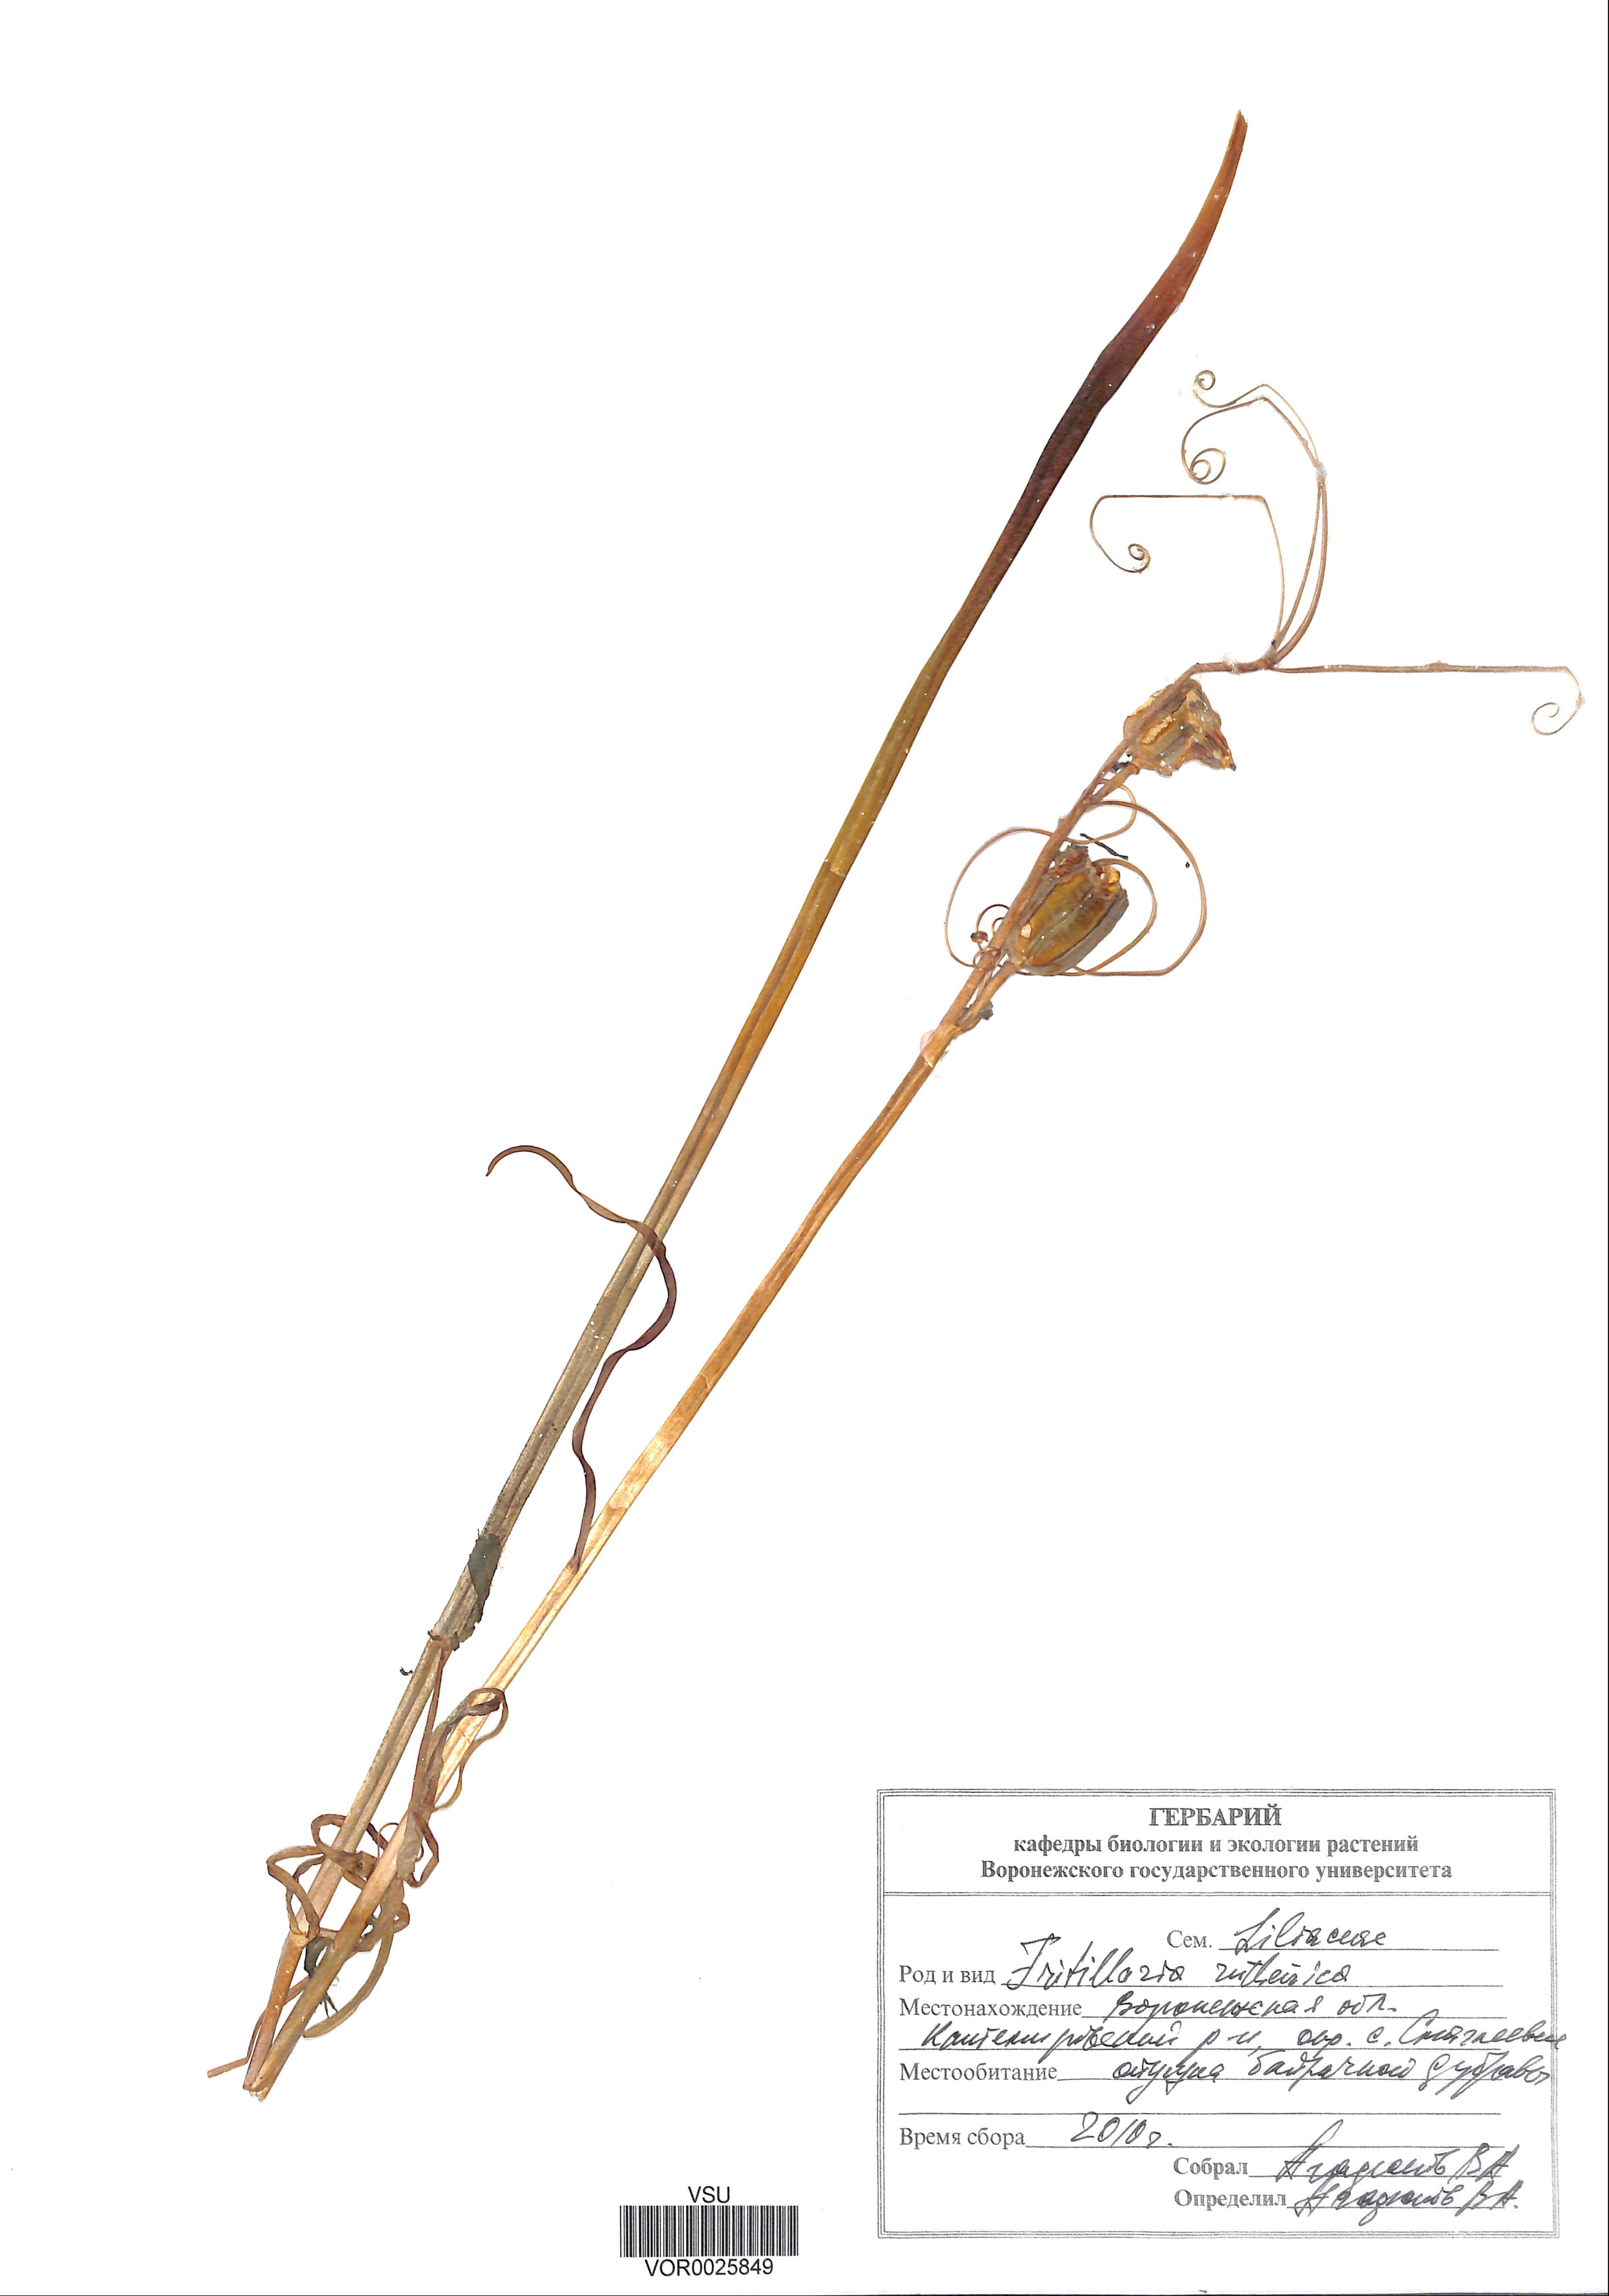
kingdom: Plantae
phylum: Tracheophyta
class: Liliopsida
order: Liliales
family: Liliaceae
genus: Fritillaria
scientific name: Fritillaria ruthenica
